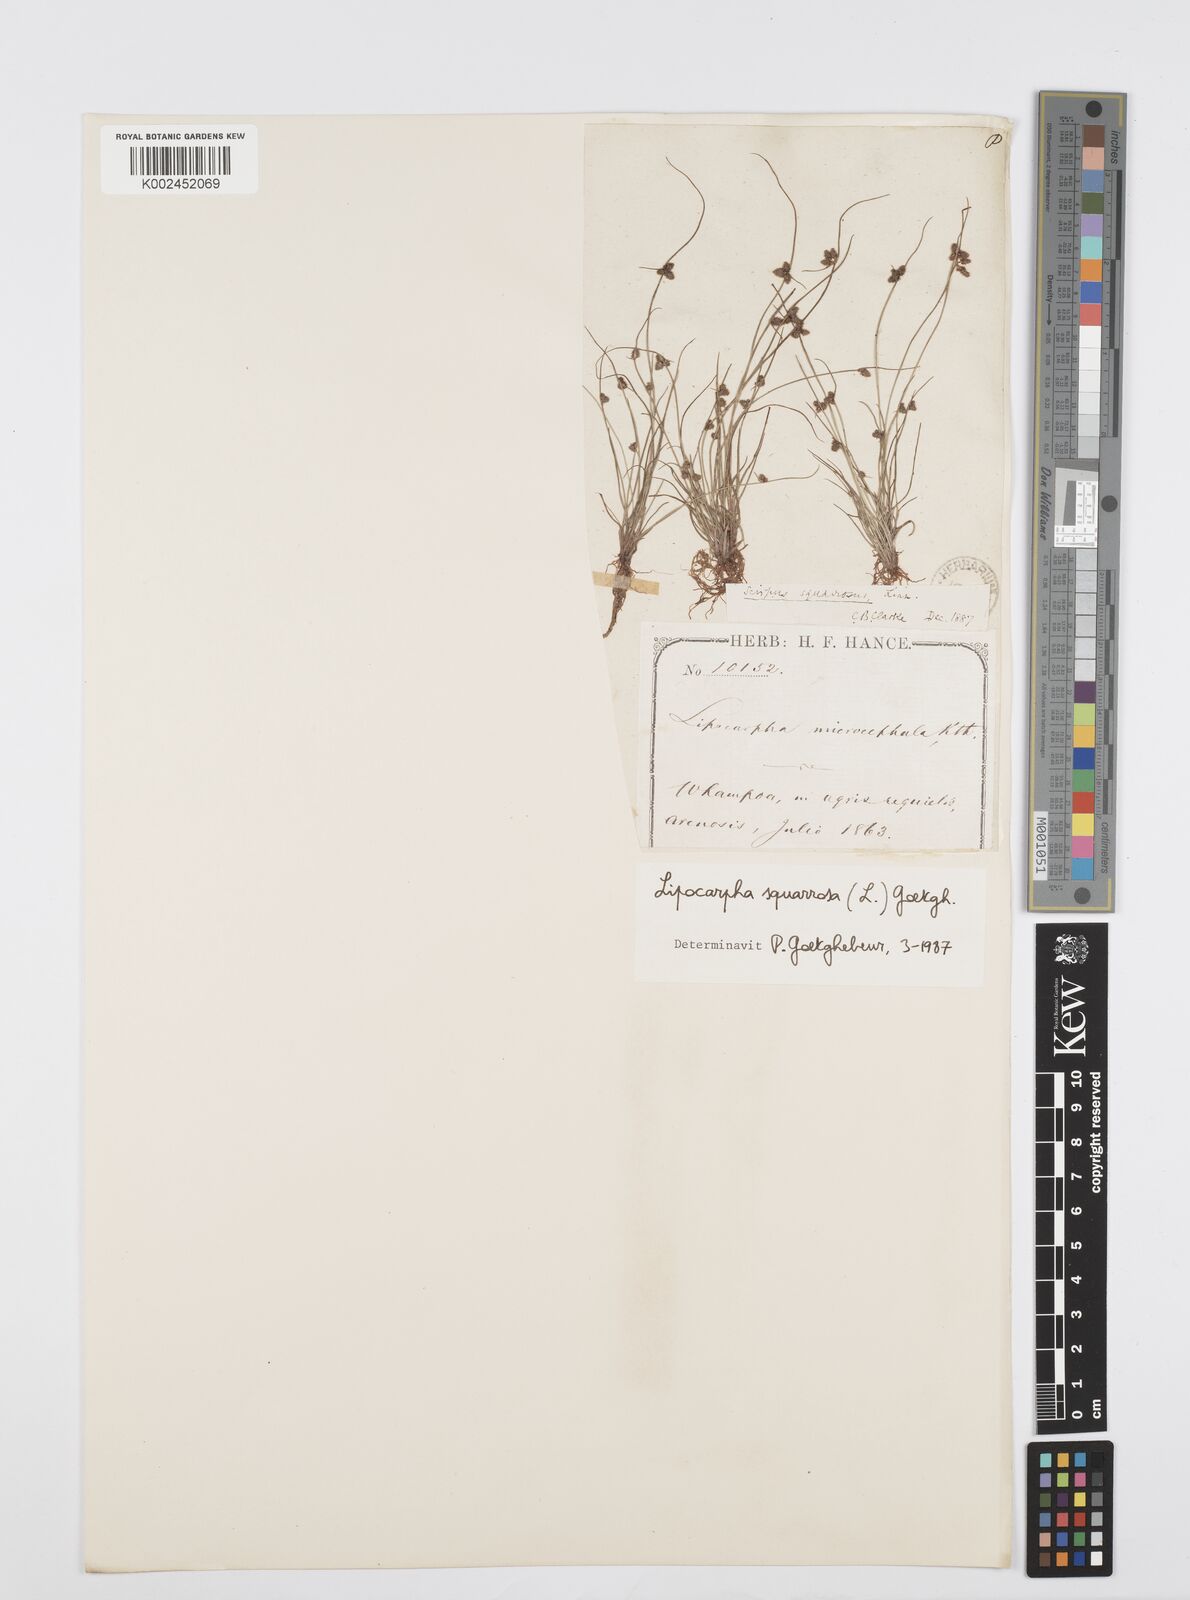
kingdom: Plantae
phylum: Tracheophyta
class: Liliopsida
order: Poales
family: Cyperaceae
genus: Cyperus
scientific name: Cyperus squarrosus
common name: Awned cyperus
